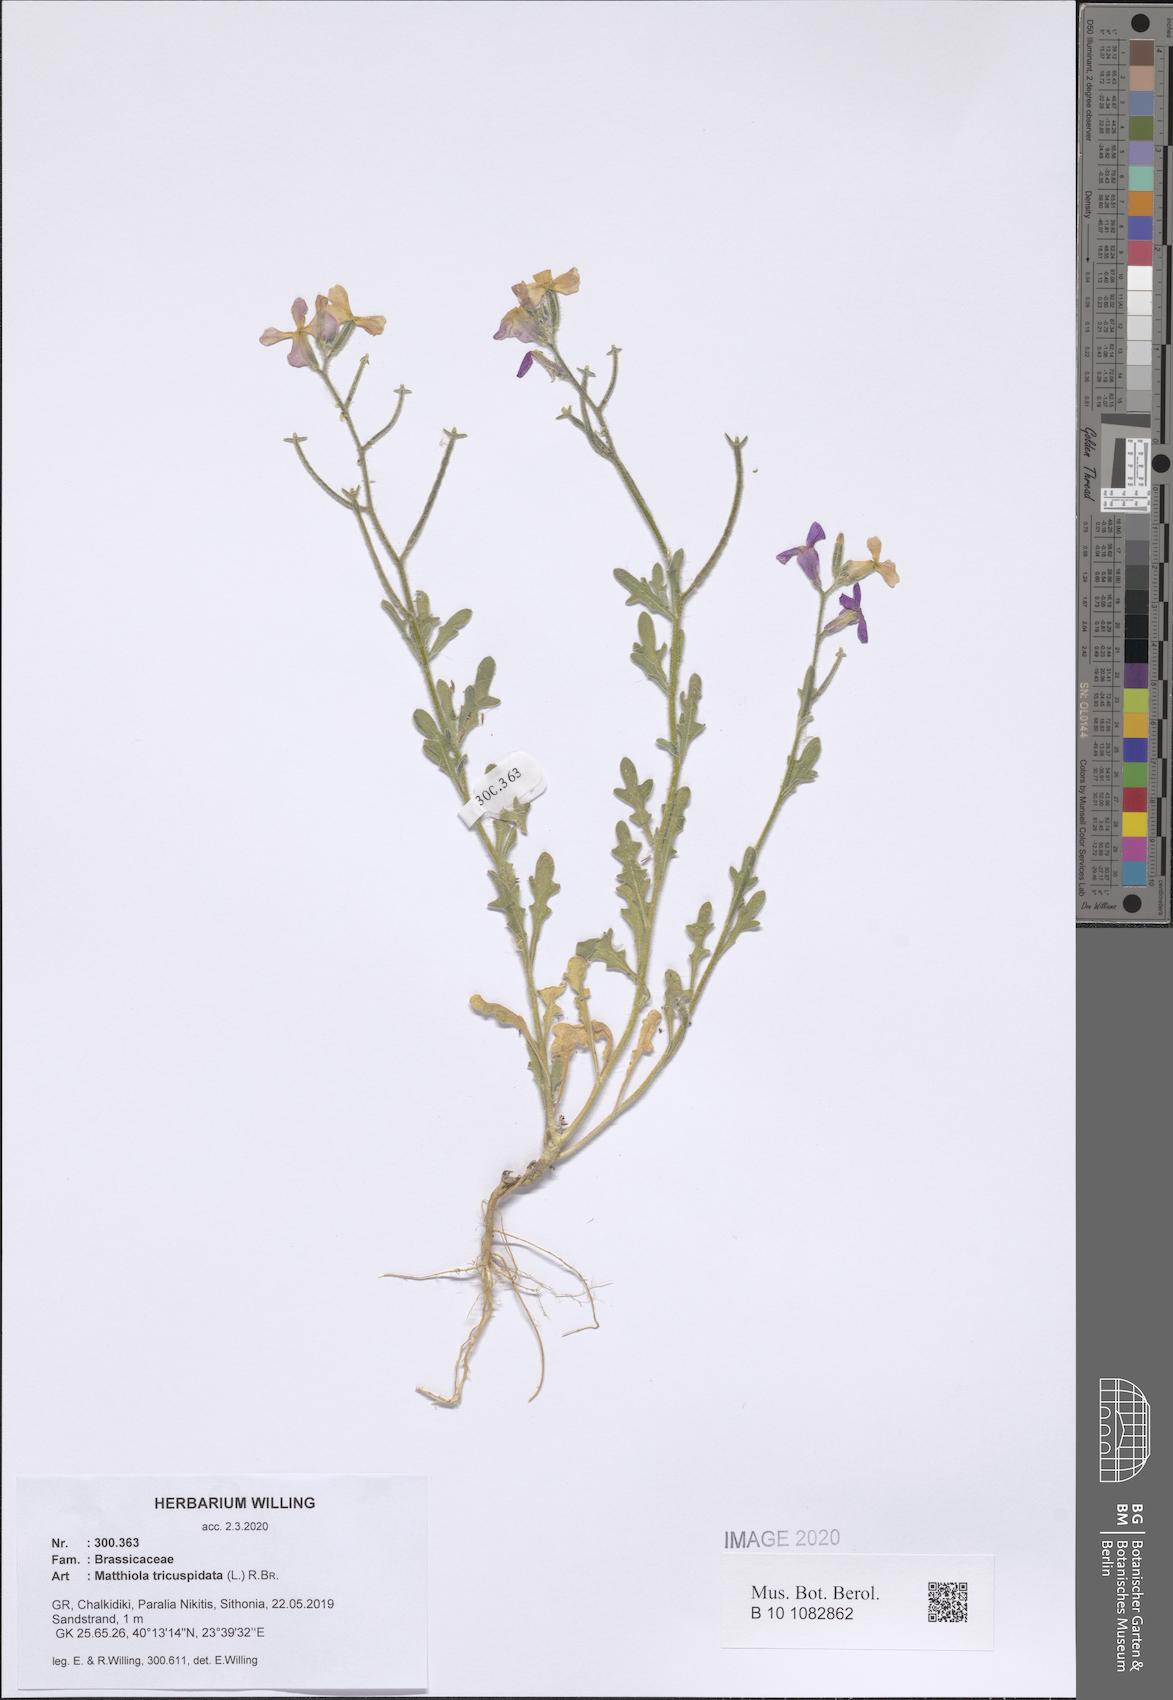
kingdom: Plantae
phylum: Tracheophyta
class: Magnoliopsida
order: Brassicales
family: Brassicaceae
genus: Matthiola
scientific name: Matthiola tricuspidata
